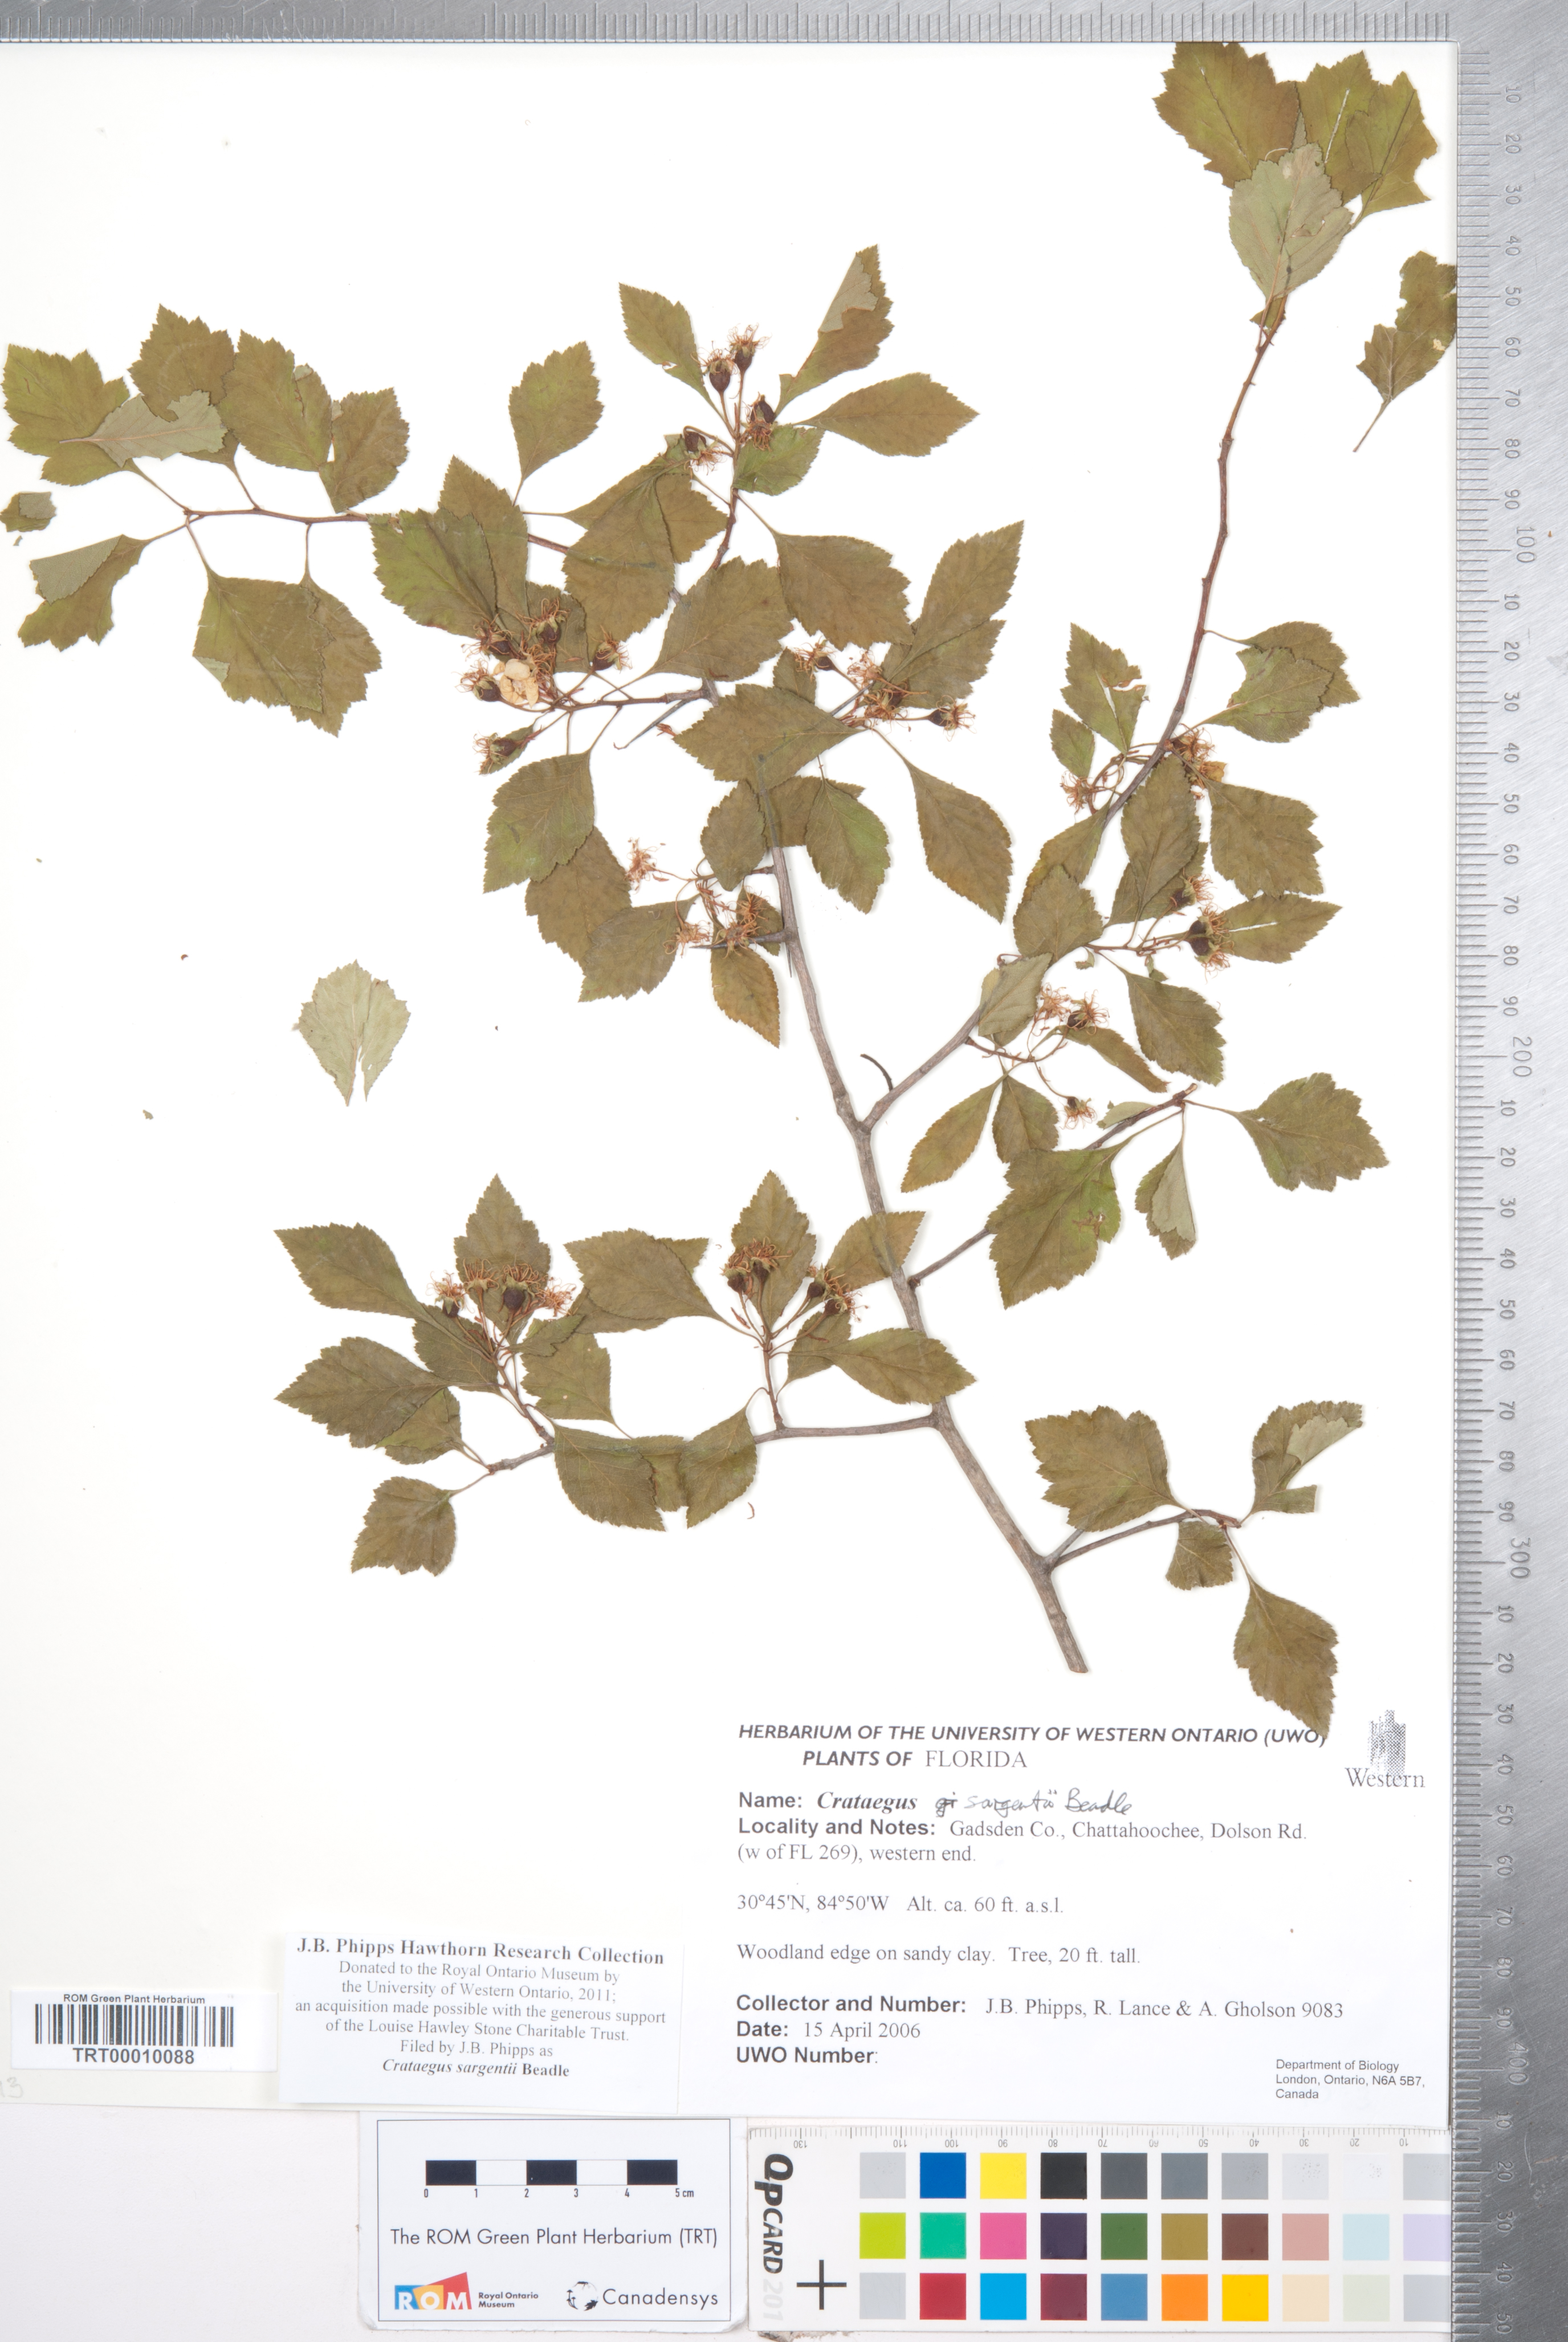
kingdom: Plantae
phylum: Tracheophyta
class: Magnoliopsida
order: Rosales
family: Rosaceae
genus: Crataegus
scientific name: Crataegus sargentii
